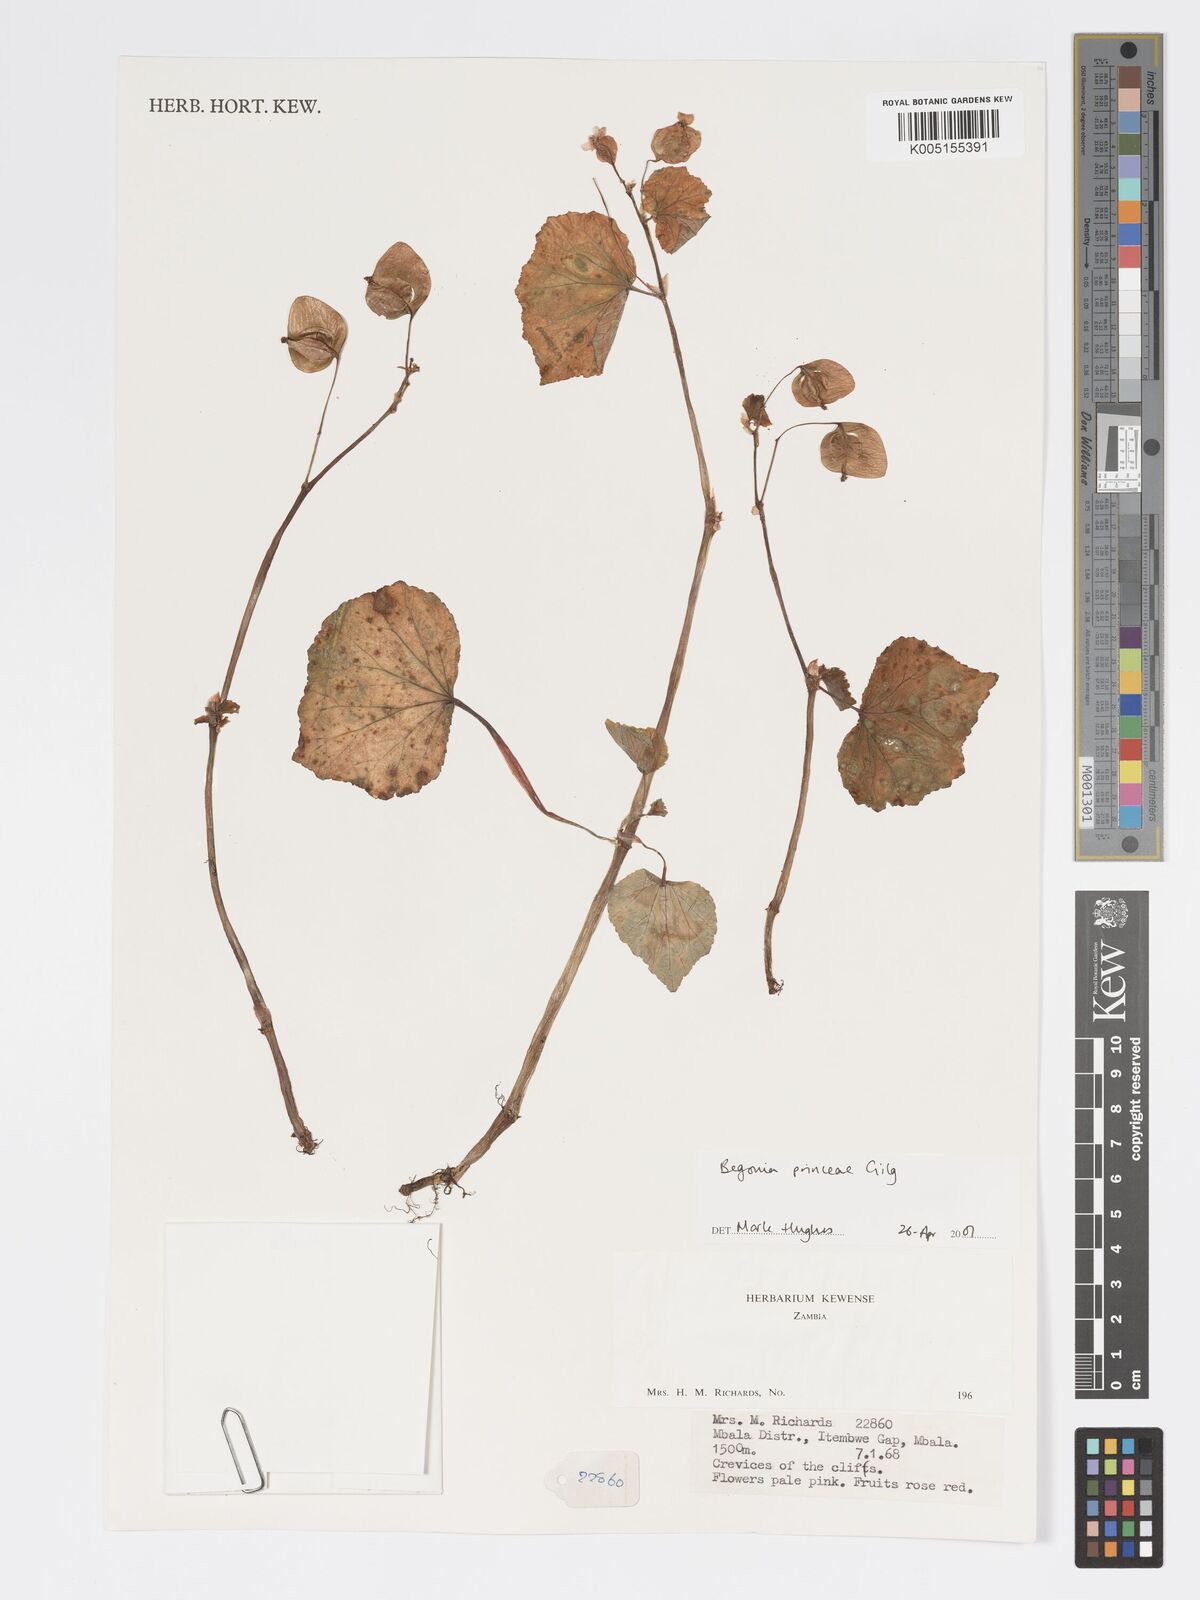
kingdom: Plantae
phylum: Tracheophyta
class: Magnoliopsida
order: Cucurbitales
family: Begoniaceae
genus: Begonia
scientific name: Begonia
